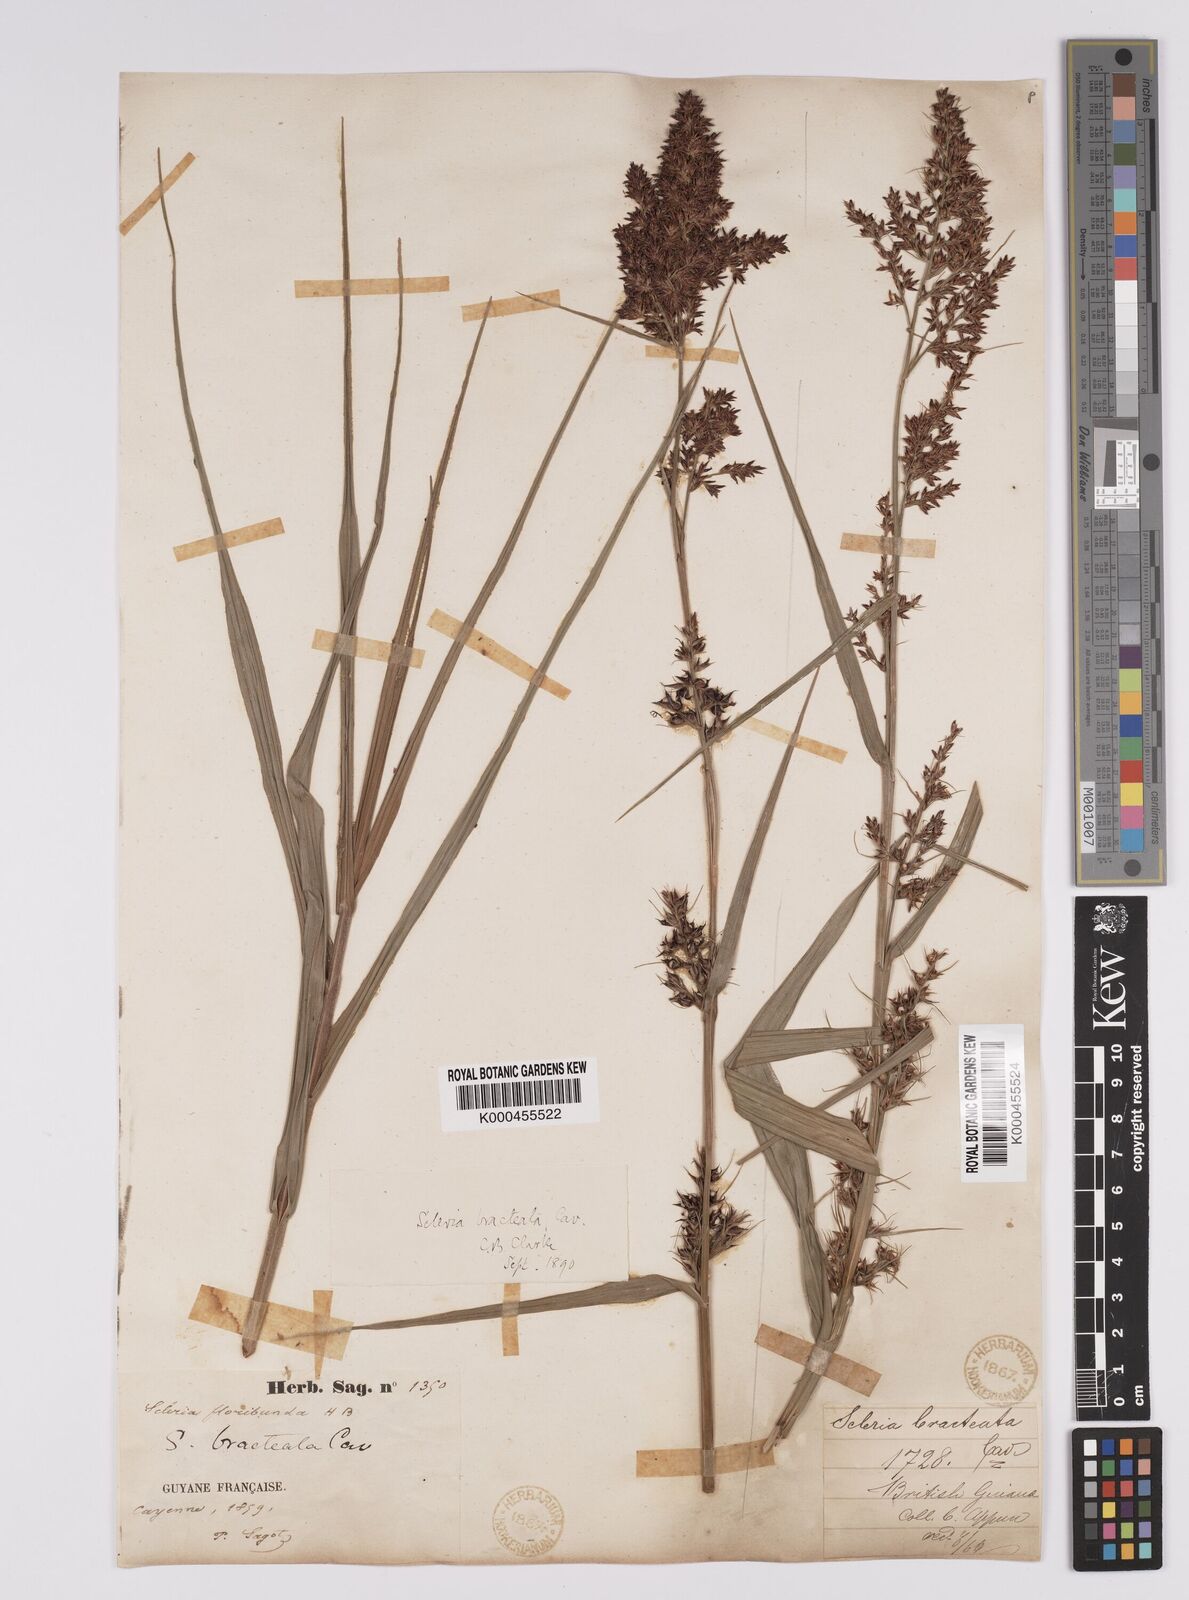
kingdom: Plantae
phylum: Tracheophyta
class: Liliopsida
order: Poales
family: Cyperaceae
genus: Scleria
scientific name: Scleria bracteata
